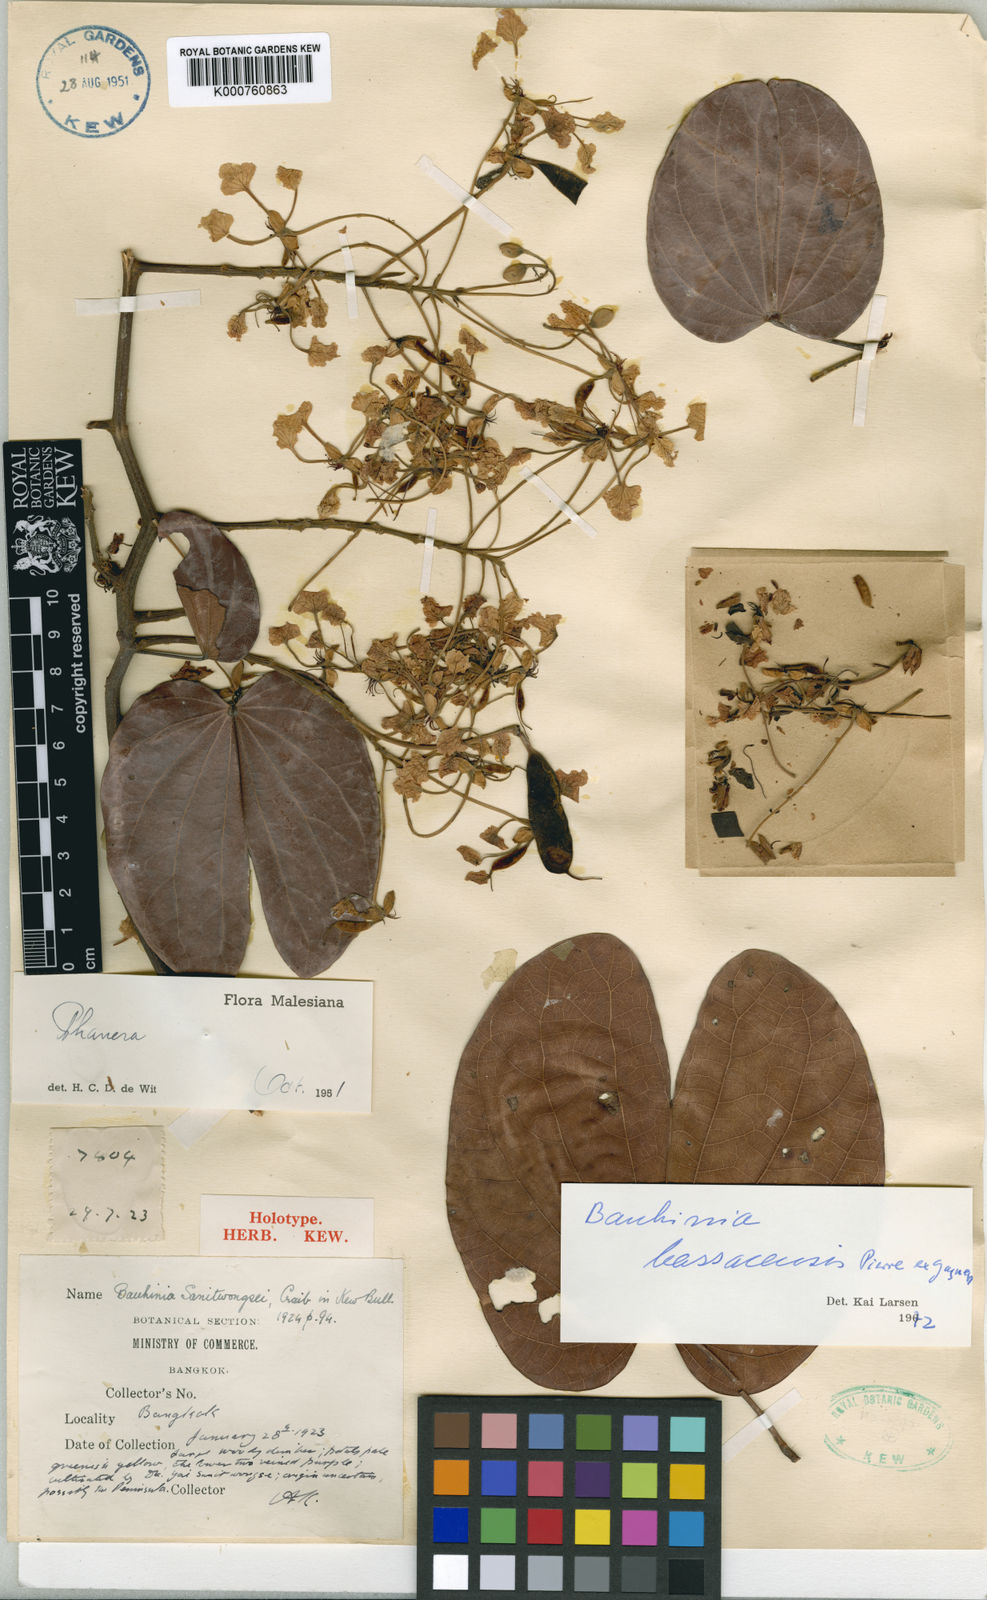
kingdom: Plantae
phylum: Tracheophyta
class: Magnoliopsida
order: Fabales
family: Fabaceae
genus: Phanera
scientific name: Phanera bassacensis
